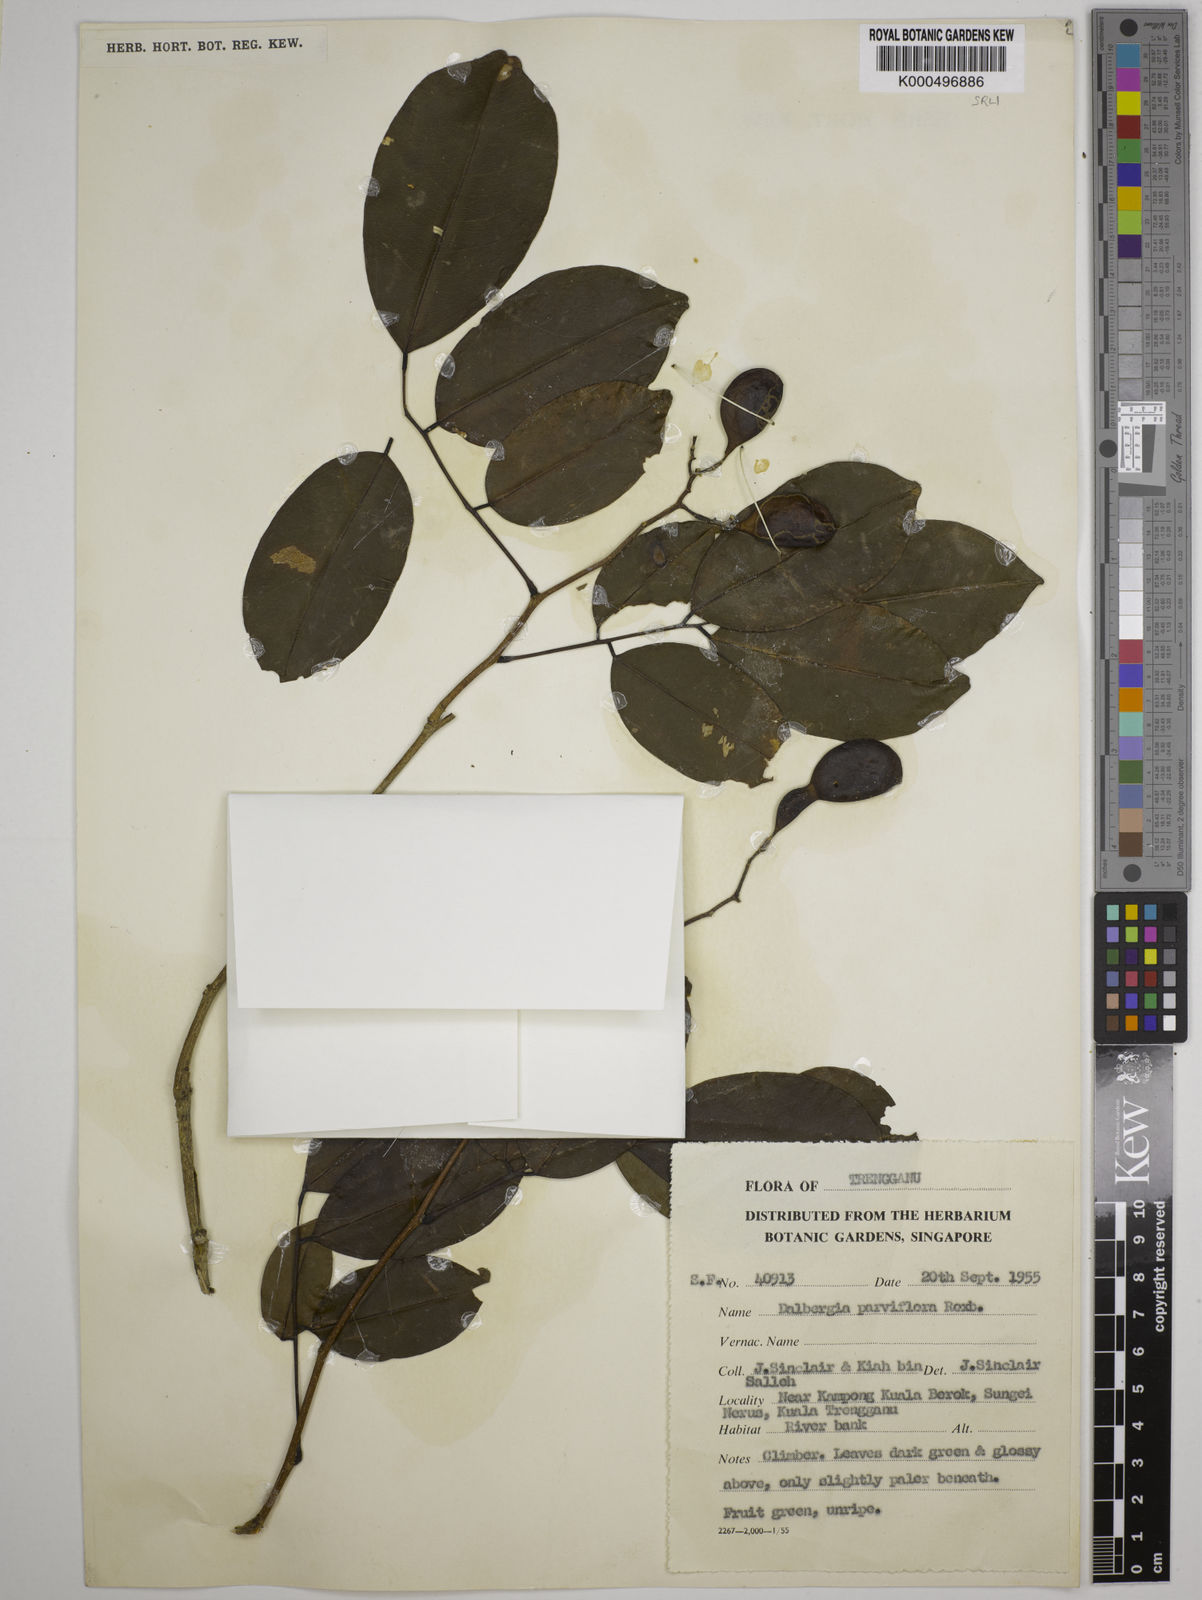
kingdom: Plantae
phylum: Tracheophyta
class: Magnoliopsida
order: Fabales
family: Fabaceae
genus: Dalbergia
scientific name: Dalbergia parviflora
